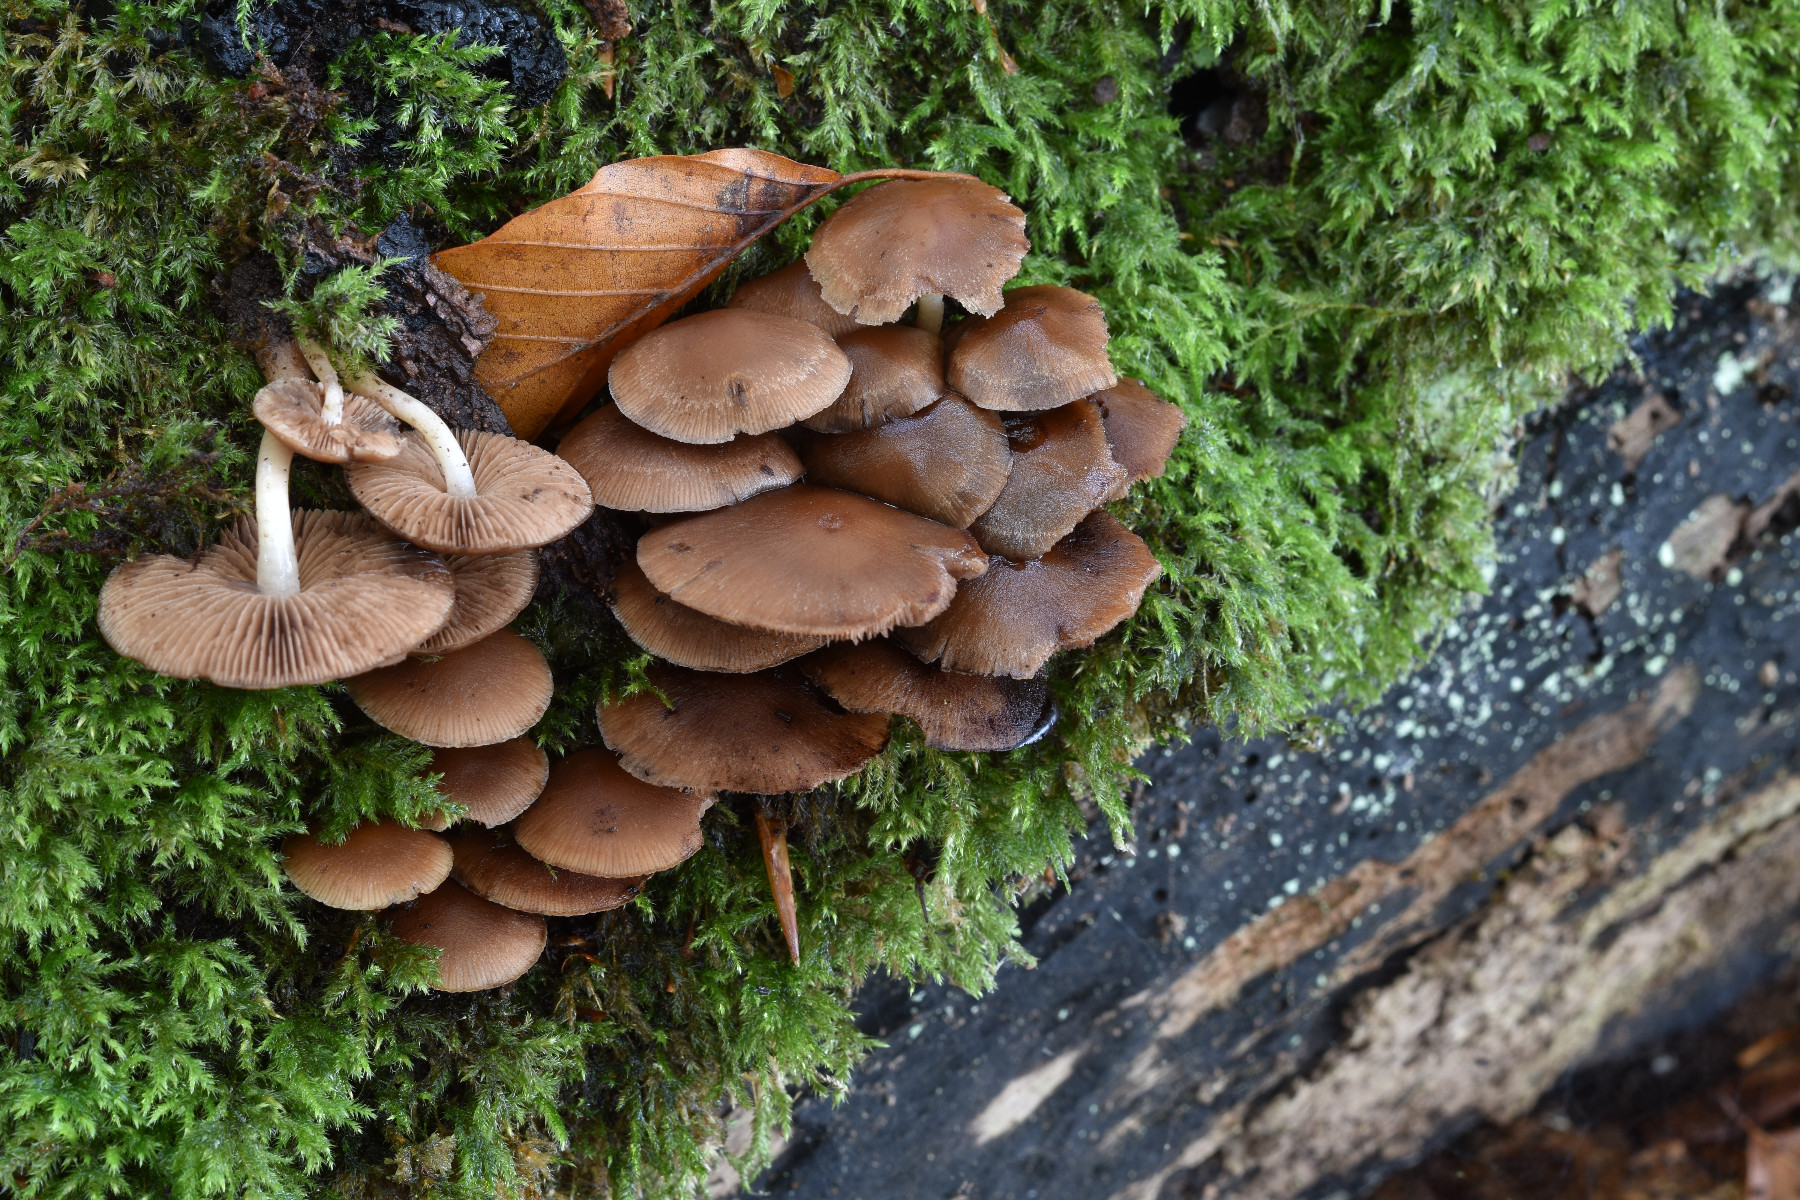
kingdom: Fungi
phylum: Basidiomycota
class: Agaricomycetes
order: Agaricales
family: Psathyrellaceae
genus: Psathyrella
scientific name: Psathyrella piluliformis
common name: lysstokket mørkhat
